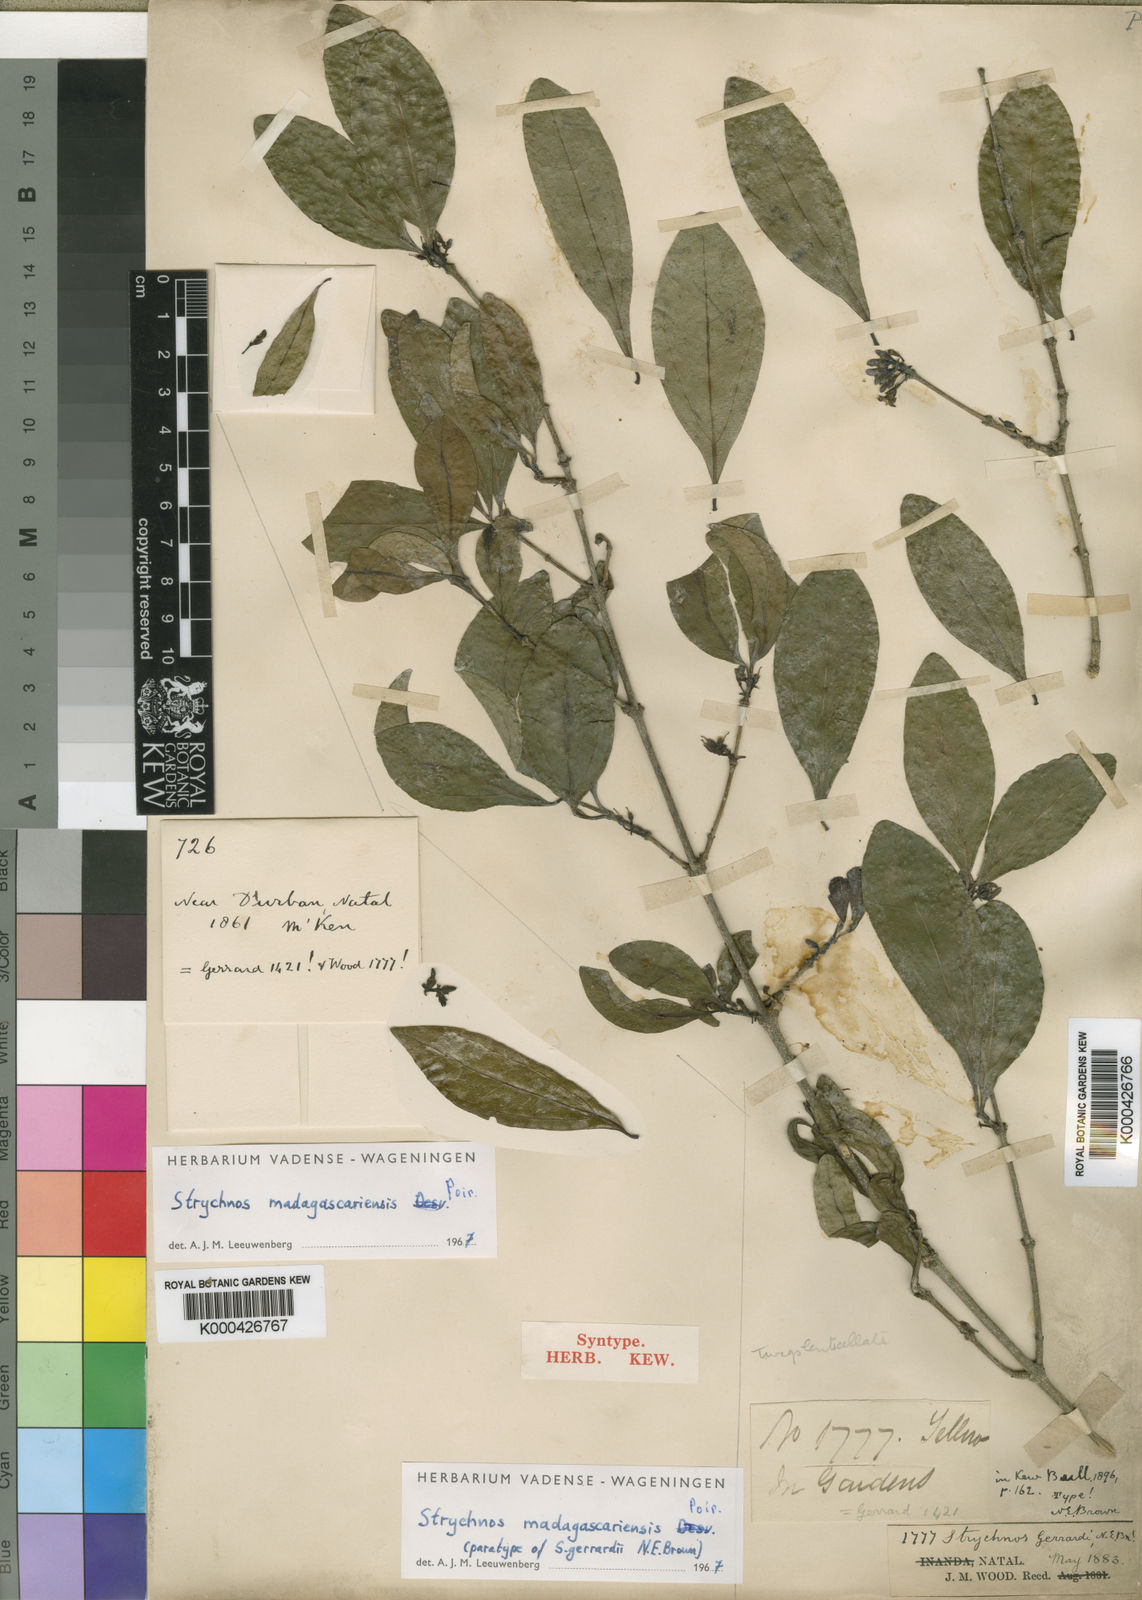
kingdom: Plantae
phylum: Tracheophyta
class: Magnoliopsida
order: Gentianales
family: Loganiaceae
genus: Strychnos
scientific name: Strychnos madagascariensis
